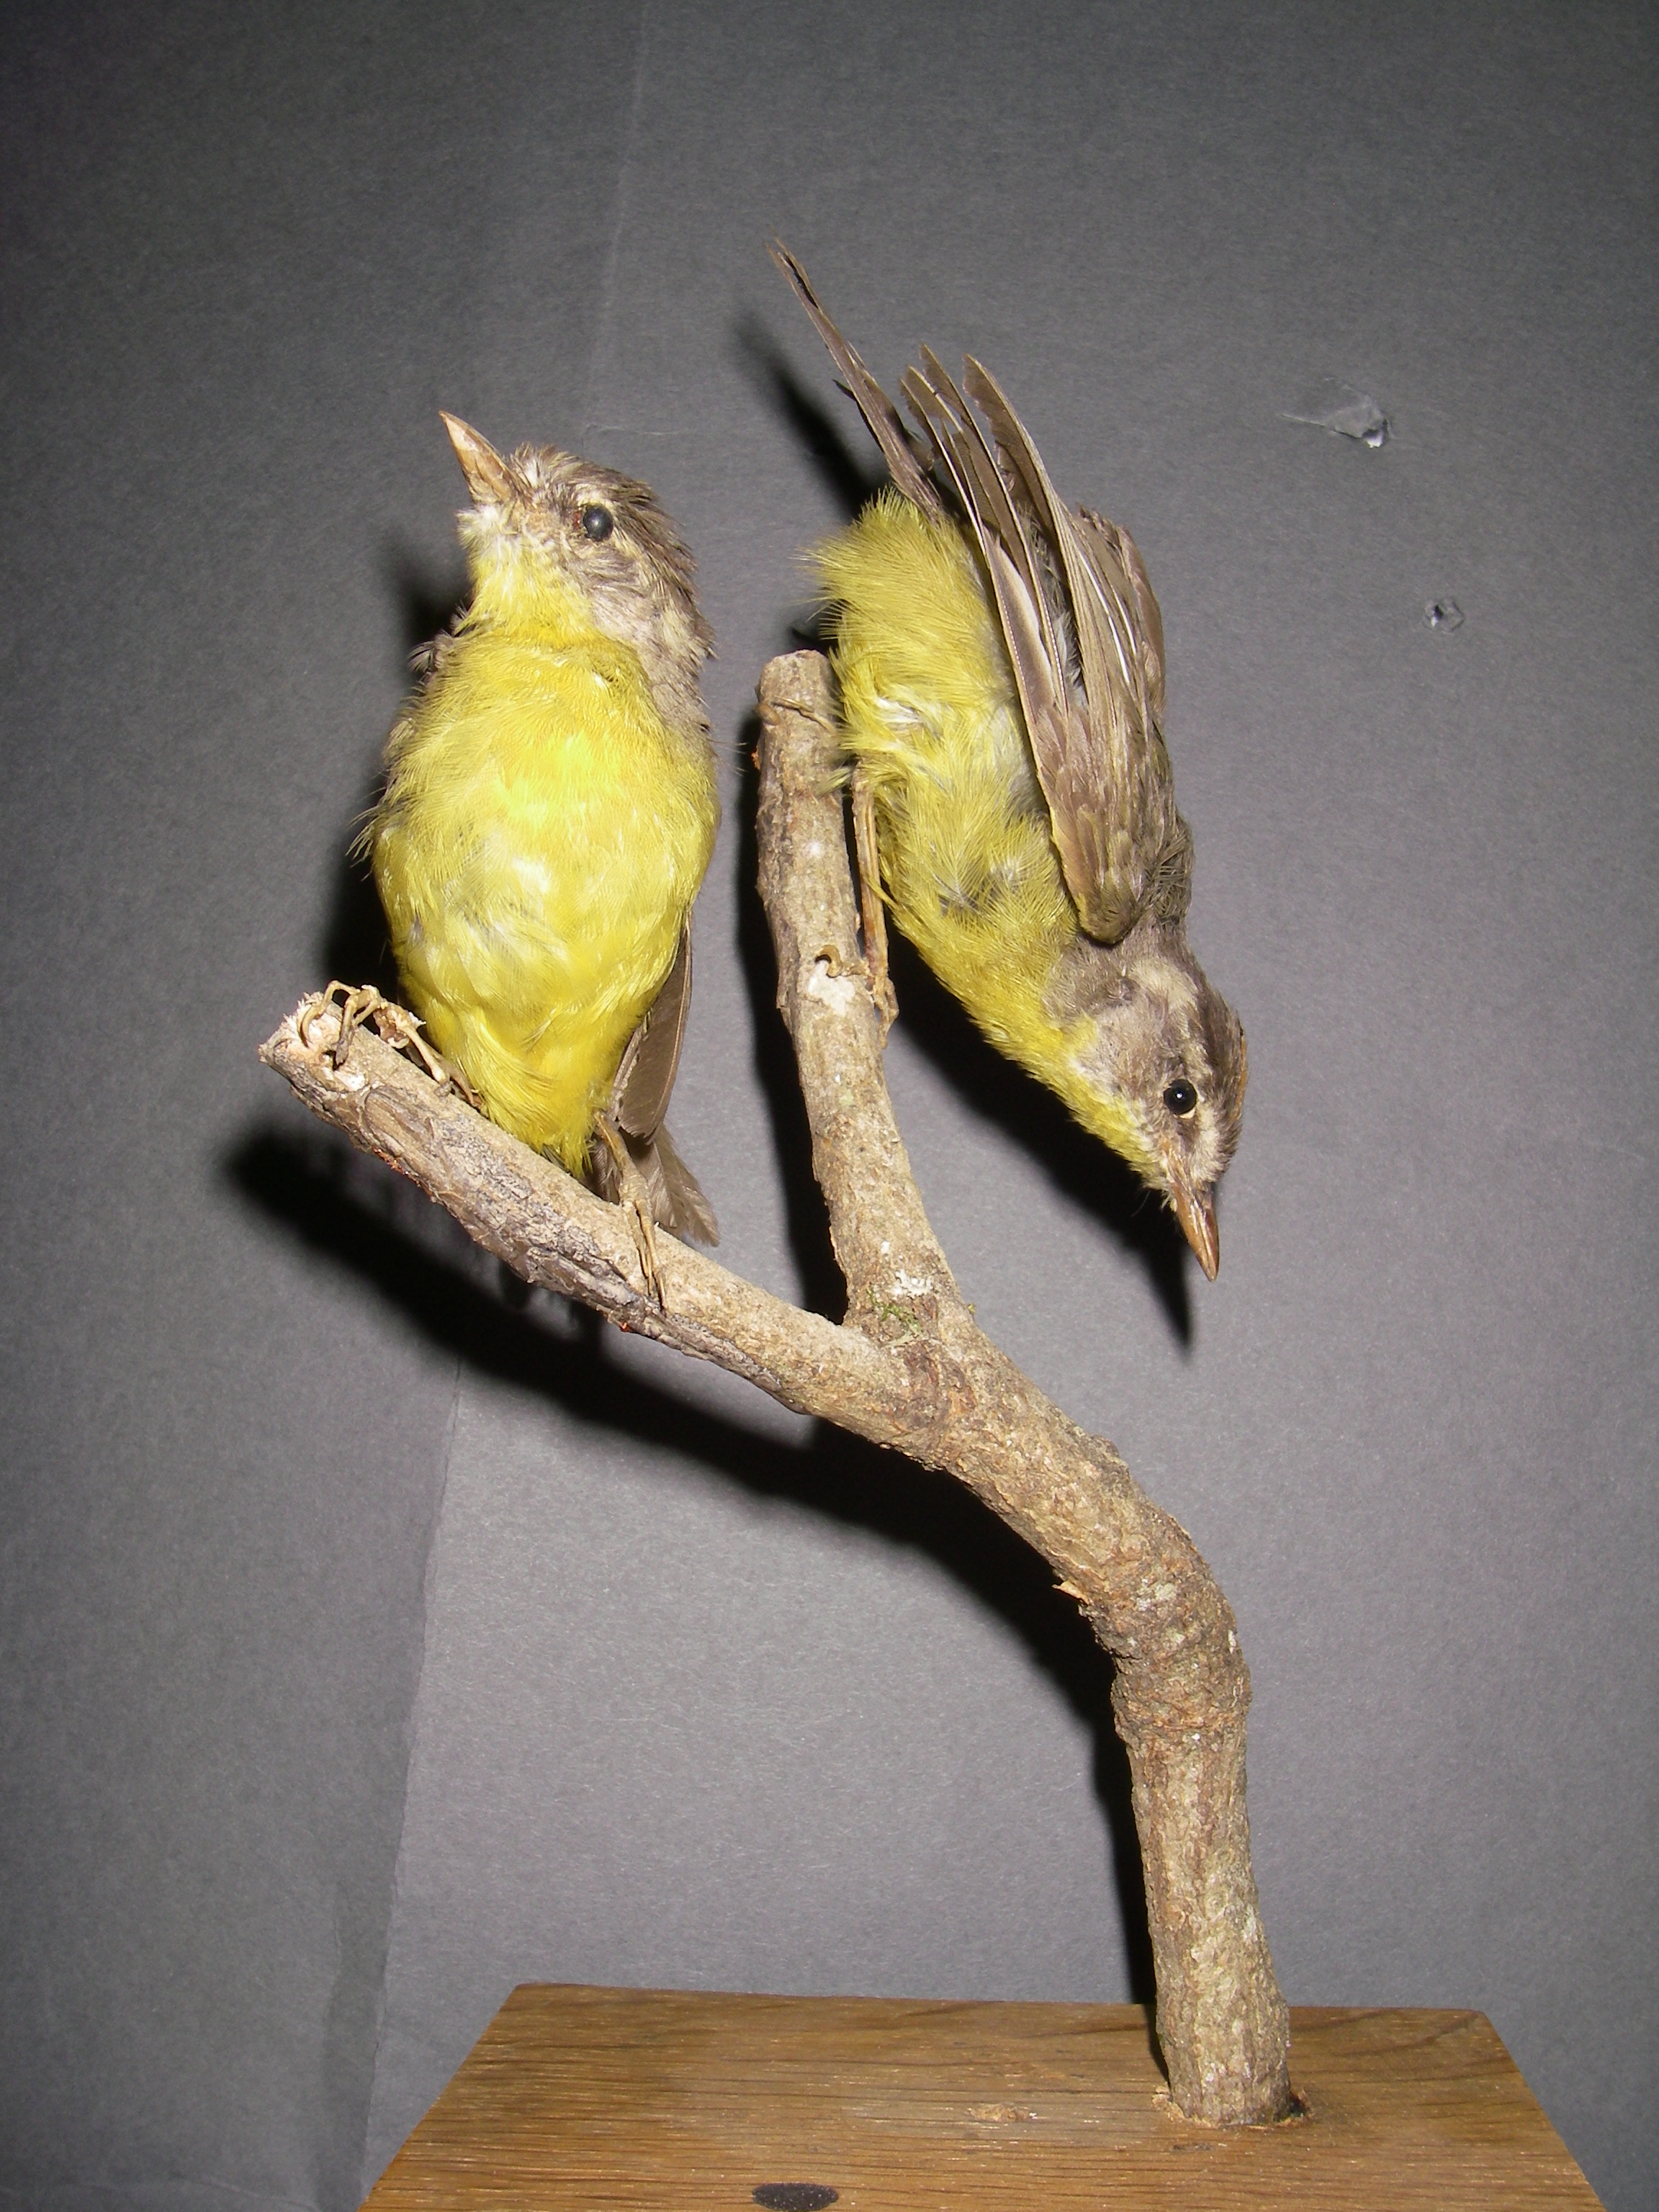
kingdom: Animalia
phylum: Chordata
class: Aves
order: Passeriformes
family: Parulidae
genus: Basileuterus
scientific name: Basileuterus culicivorus
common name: Golden-crowned warbler
